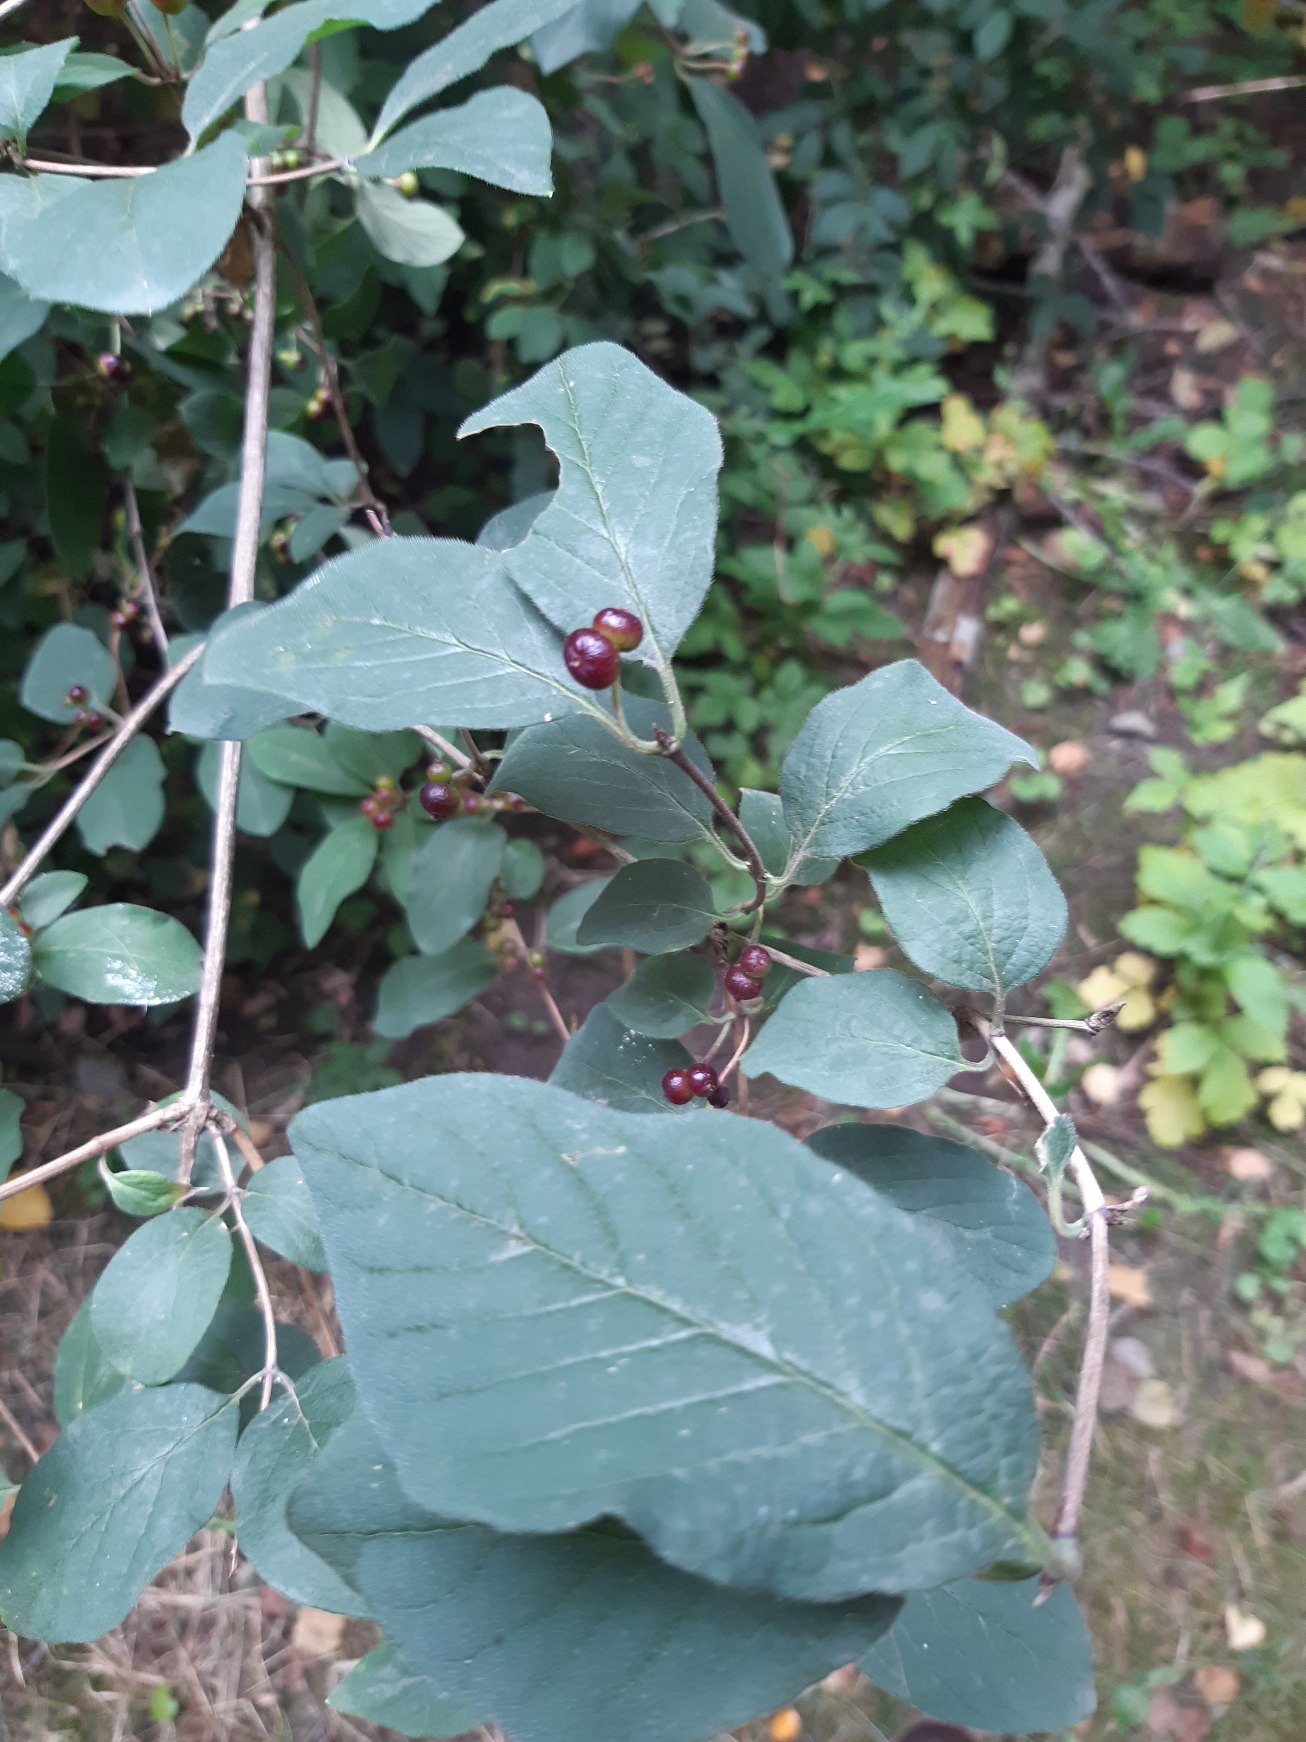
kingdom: Plantae
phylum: Tracheophyta
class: Magnoliopsida
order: Dipsacales
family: Caprifoliaceae
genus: Lonicera
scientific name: Lonicera xylosteum
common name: Dunet gedeblad
